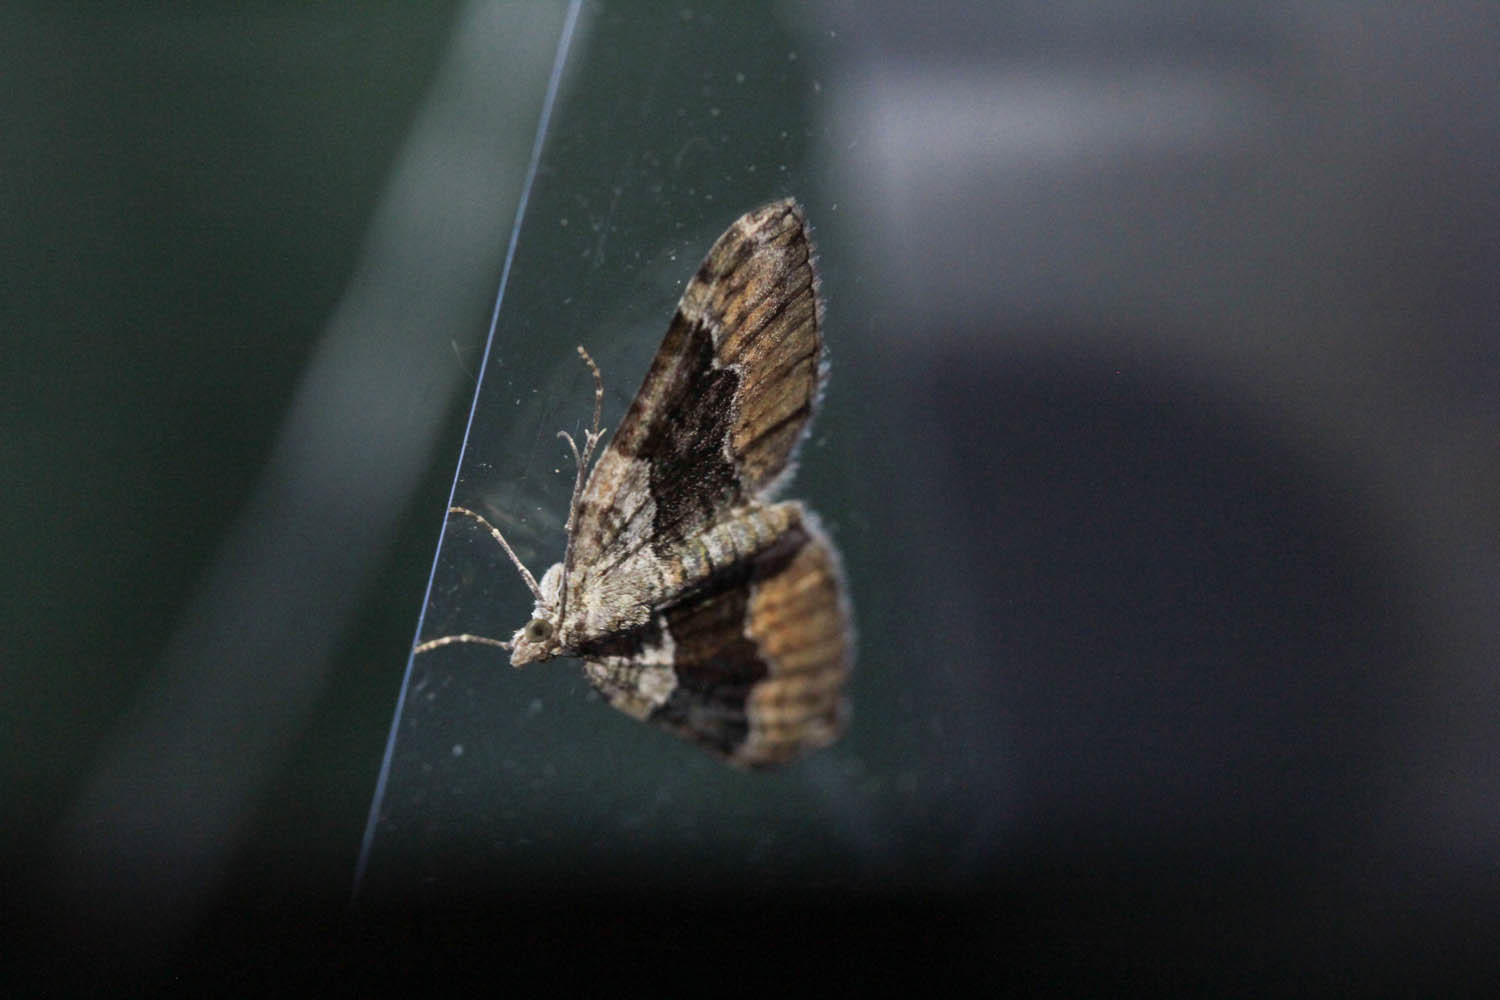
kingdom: Animalia
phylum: Arthropoda
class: Insecta
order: Lepidoptera
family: Geometridae
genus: Xanthorhoe
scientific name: Xanthorhoe quadrifasiata
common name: Large twin-spot carpet
